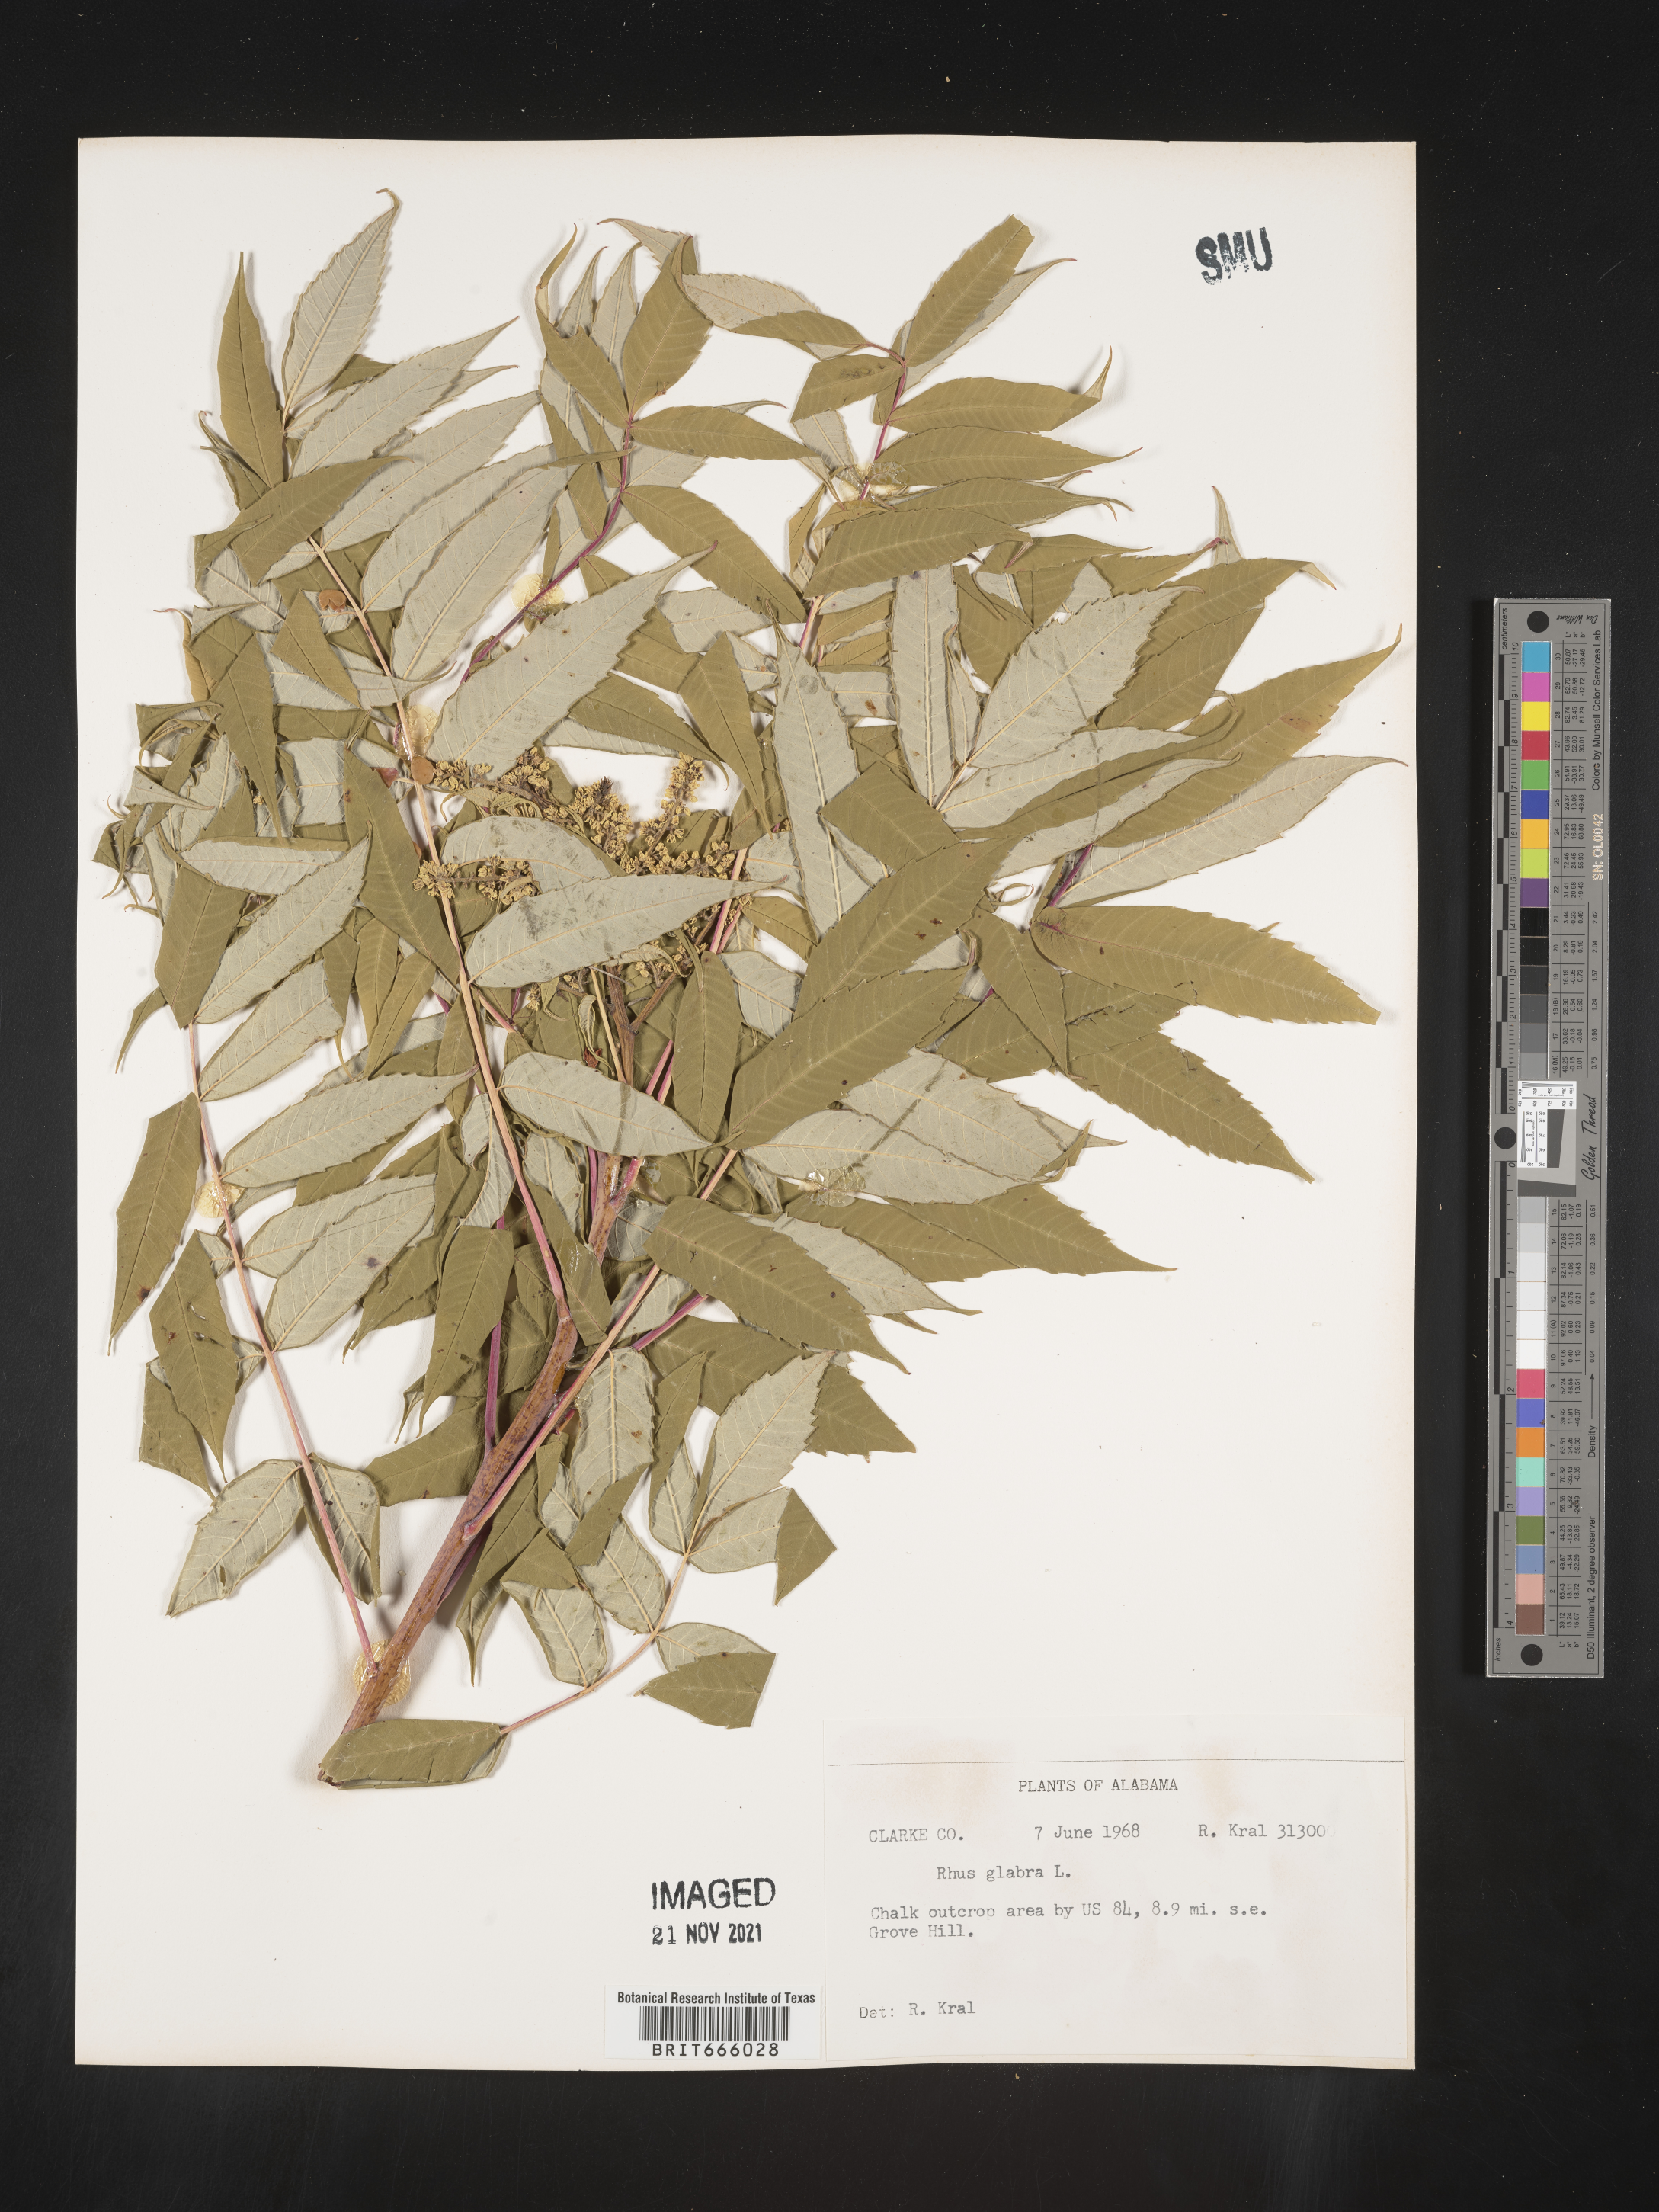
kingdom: Plantae
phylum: Tracheophyta
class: Magnoliopsida
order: Sapindales
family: Anacardiaceae
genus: Rhus
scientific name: Rhus glabra
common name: Scarlet sumac
